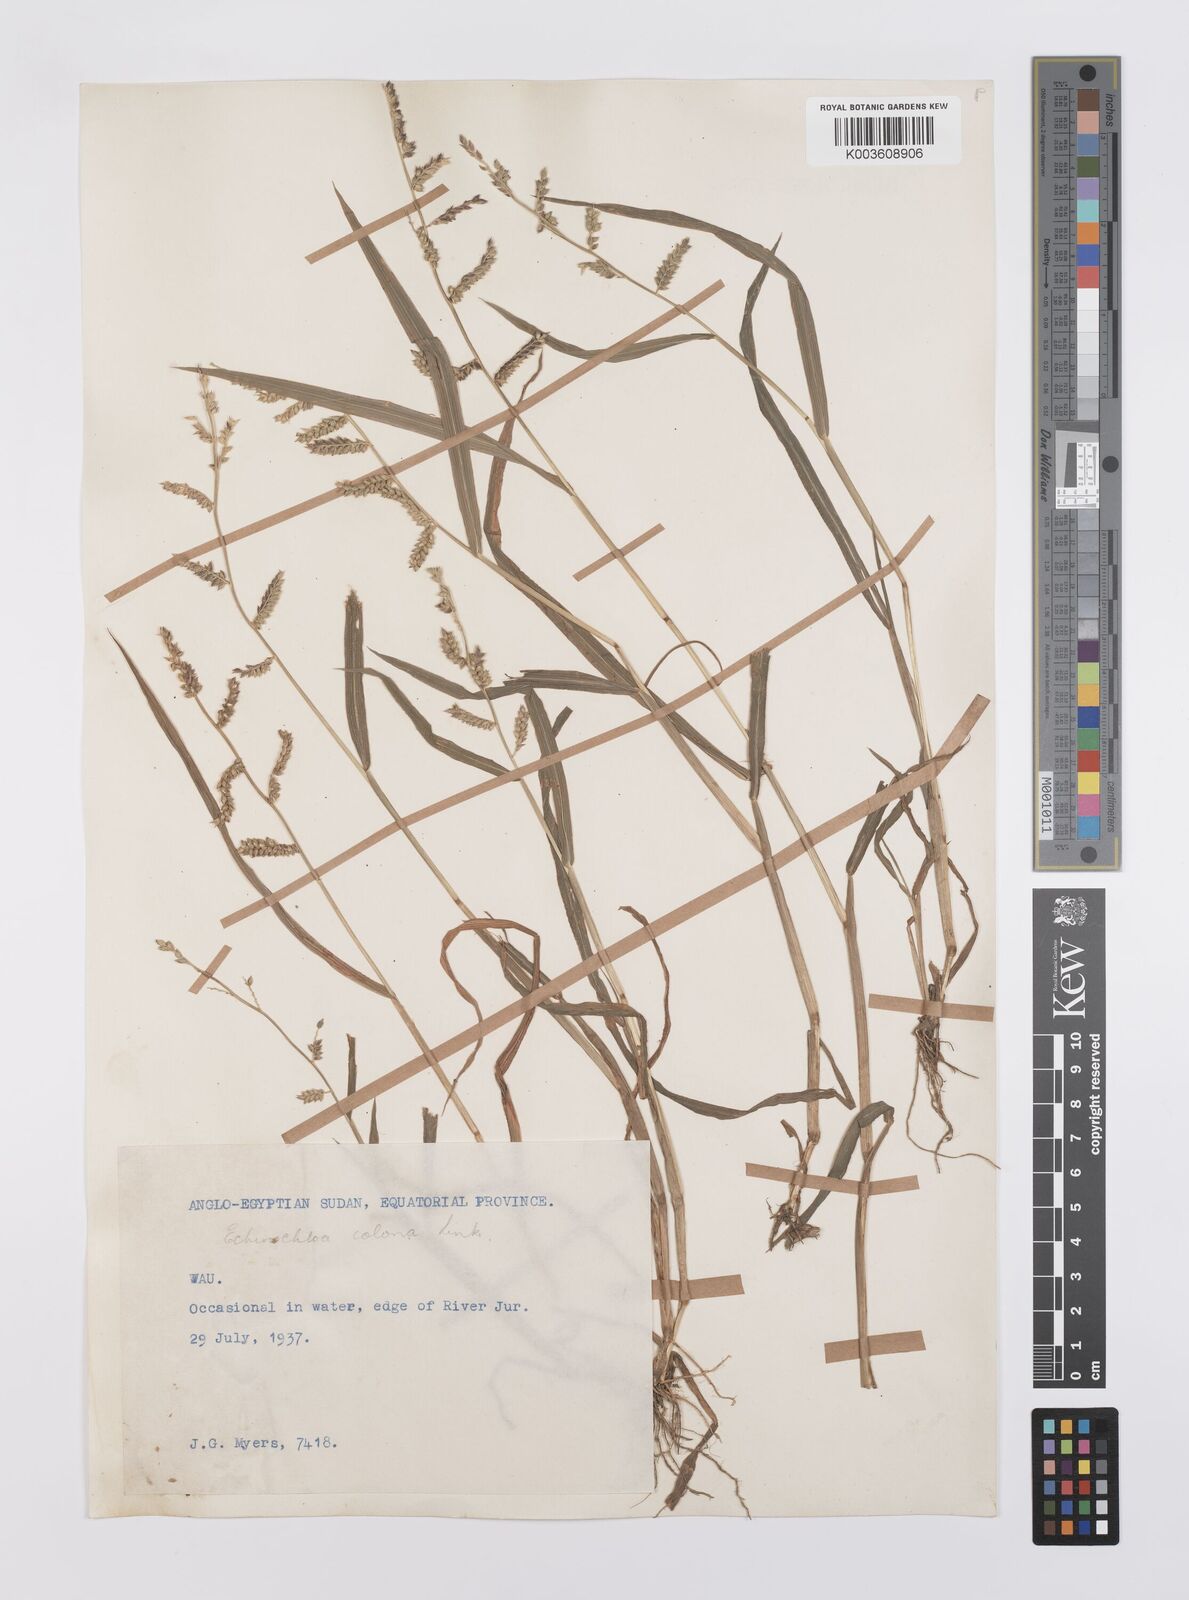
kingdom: Plantae
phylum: Tracheophyta
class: Liliopsida
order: Poales
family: Poaceae
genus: Echinochloa
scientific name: Echinochloa colonum
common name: Jungle rice
